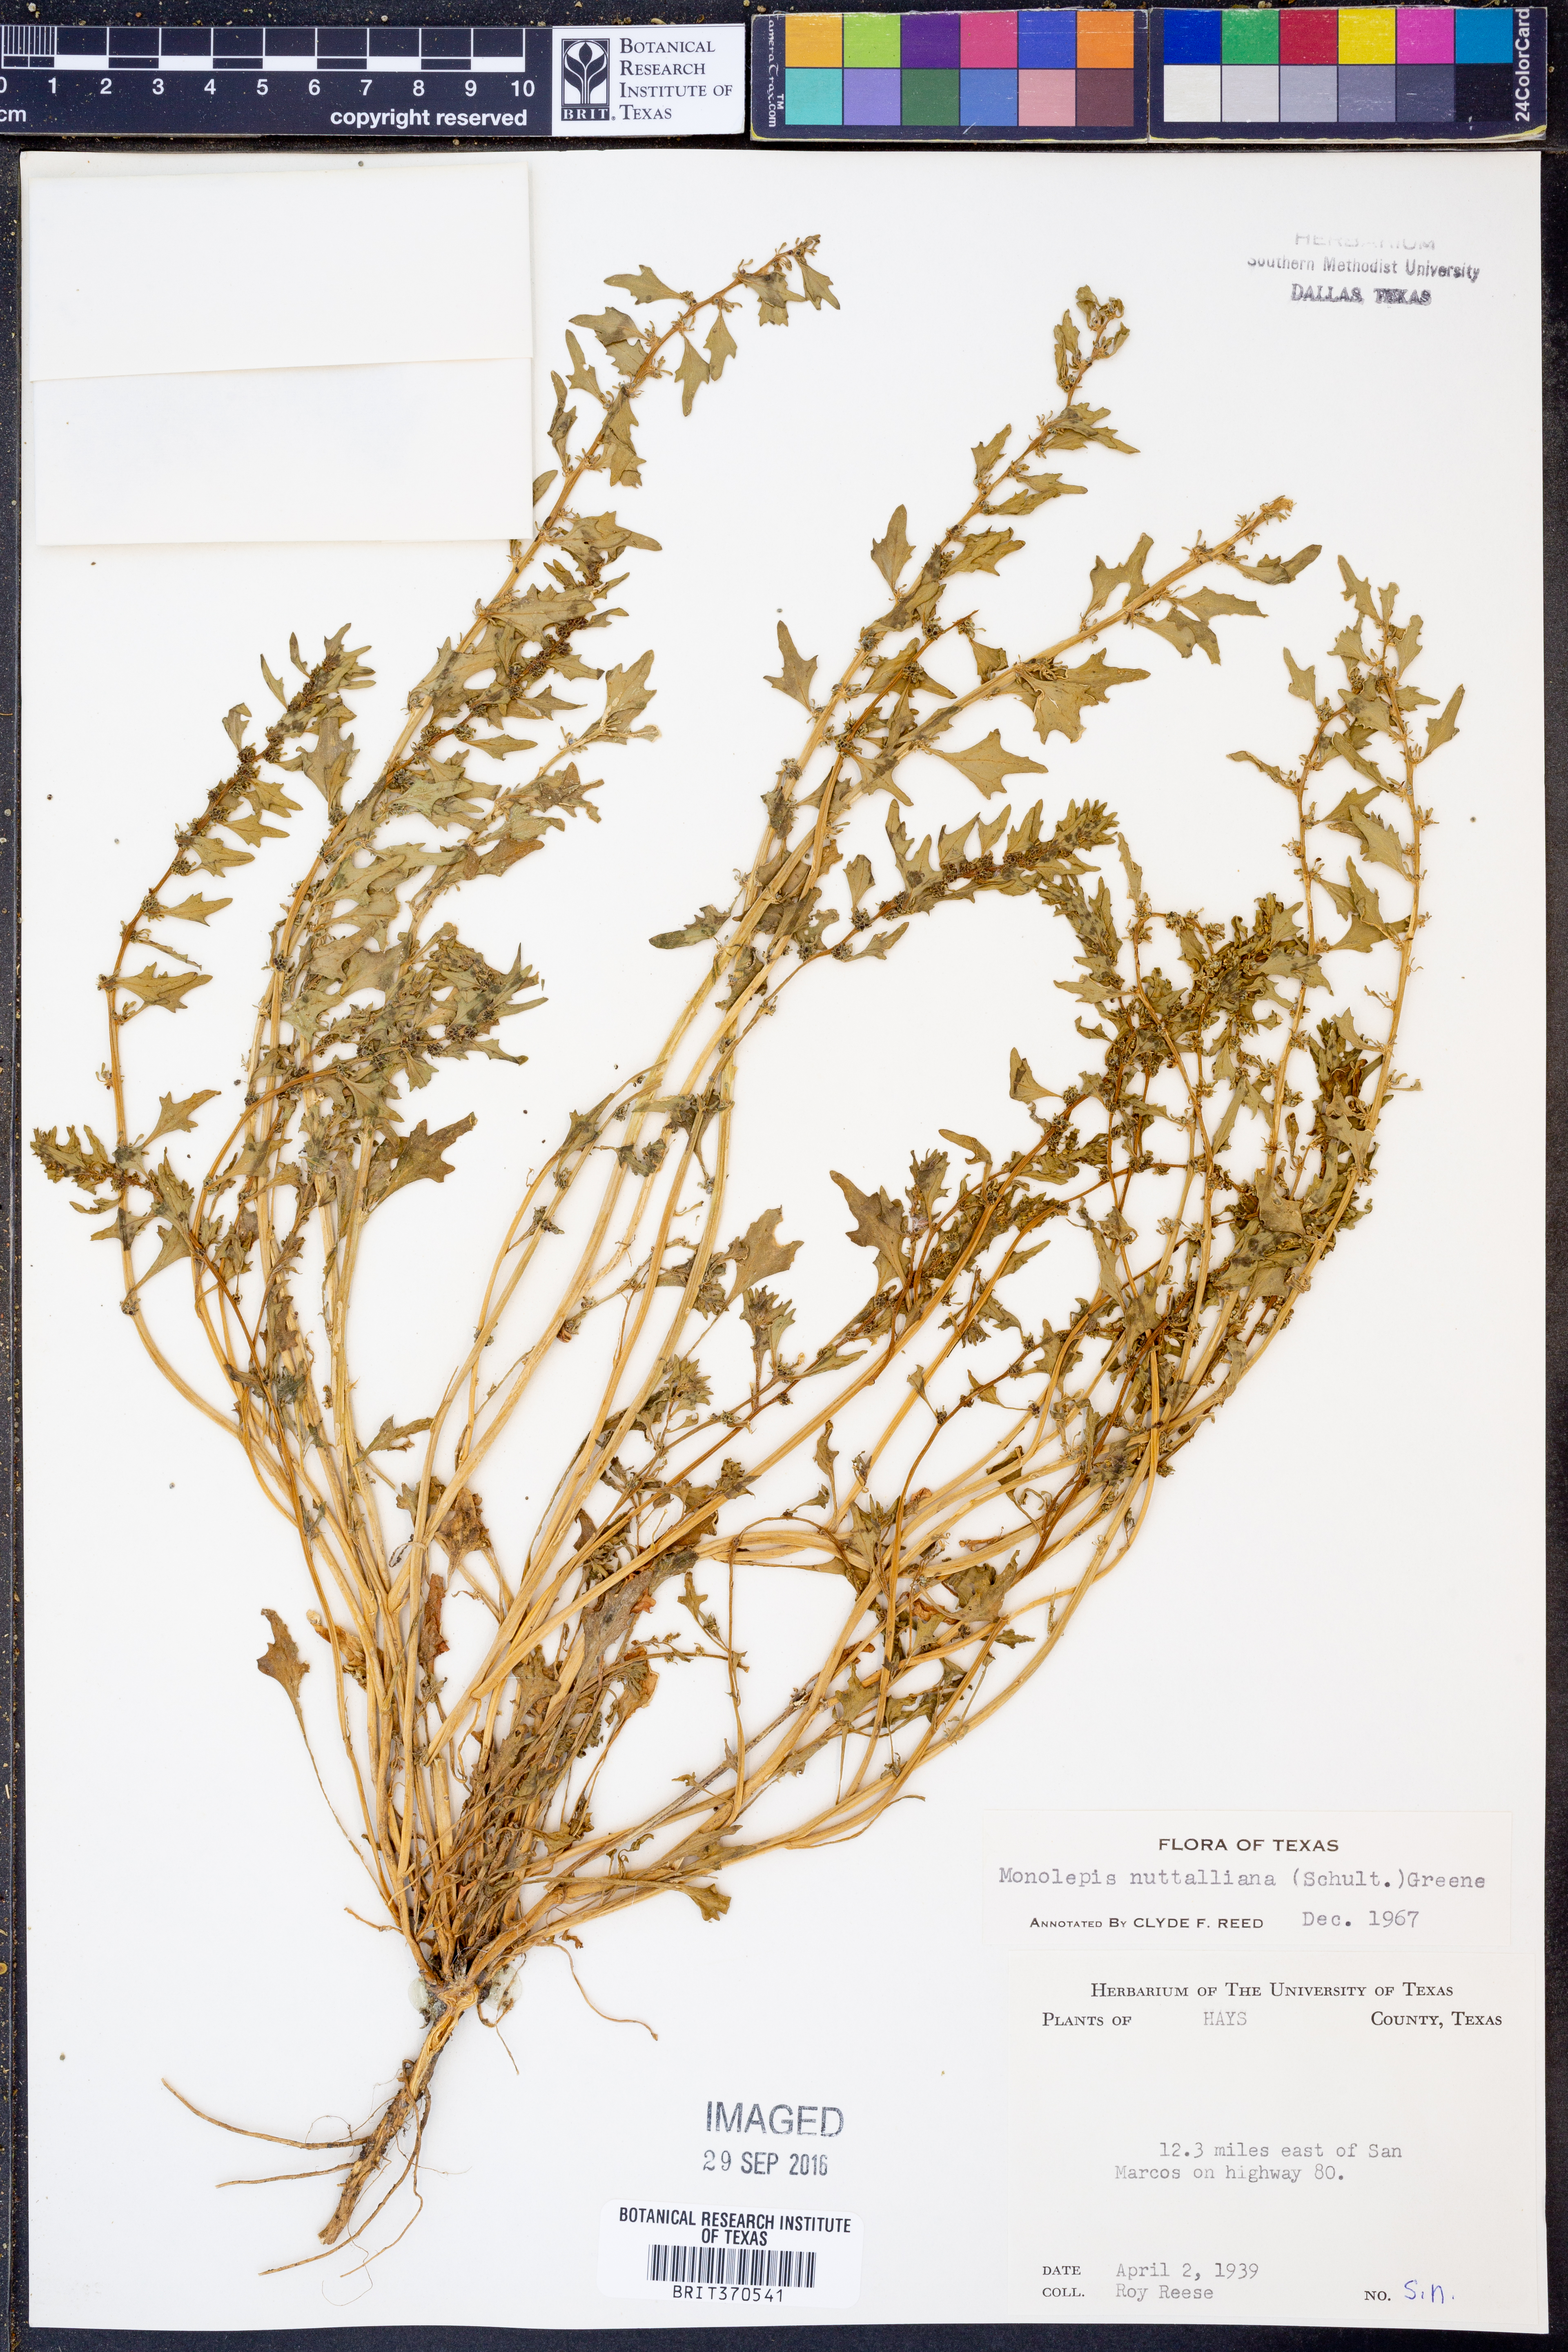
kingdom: Plantae
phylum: Tracheophyta
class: Magnoliopsida
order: Caryophyllales
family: Amaranthaceae
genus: Blitum
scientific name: Blitum nuttallianum
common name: Poverty-weed
